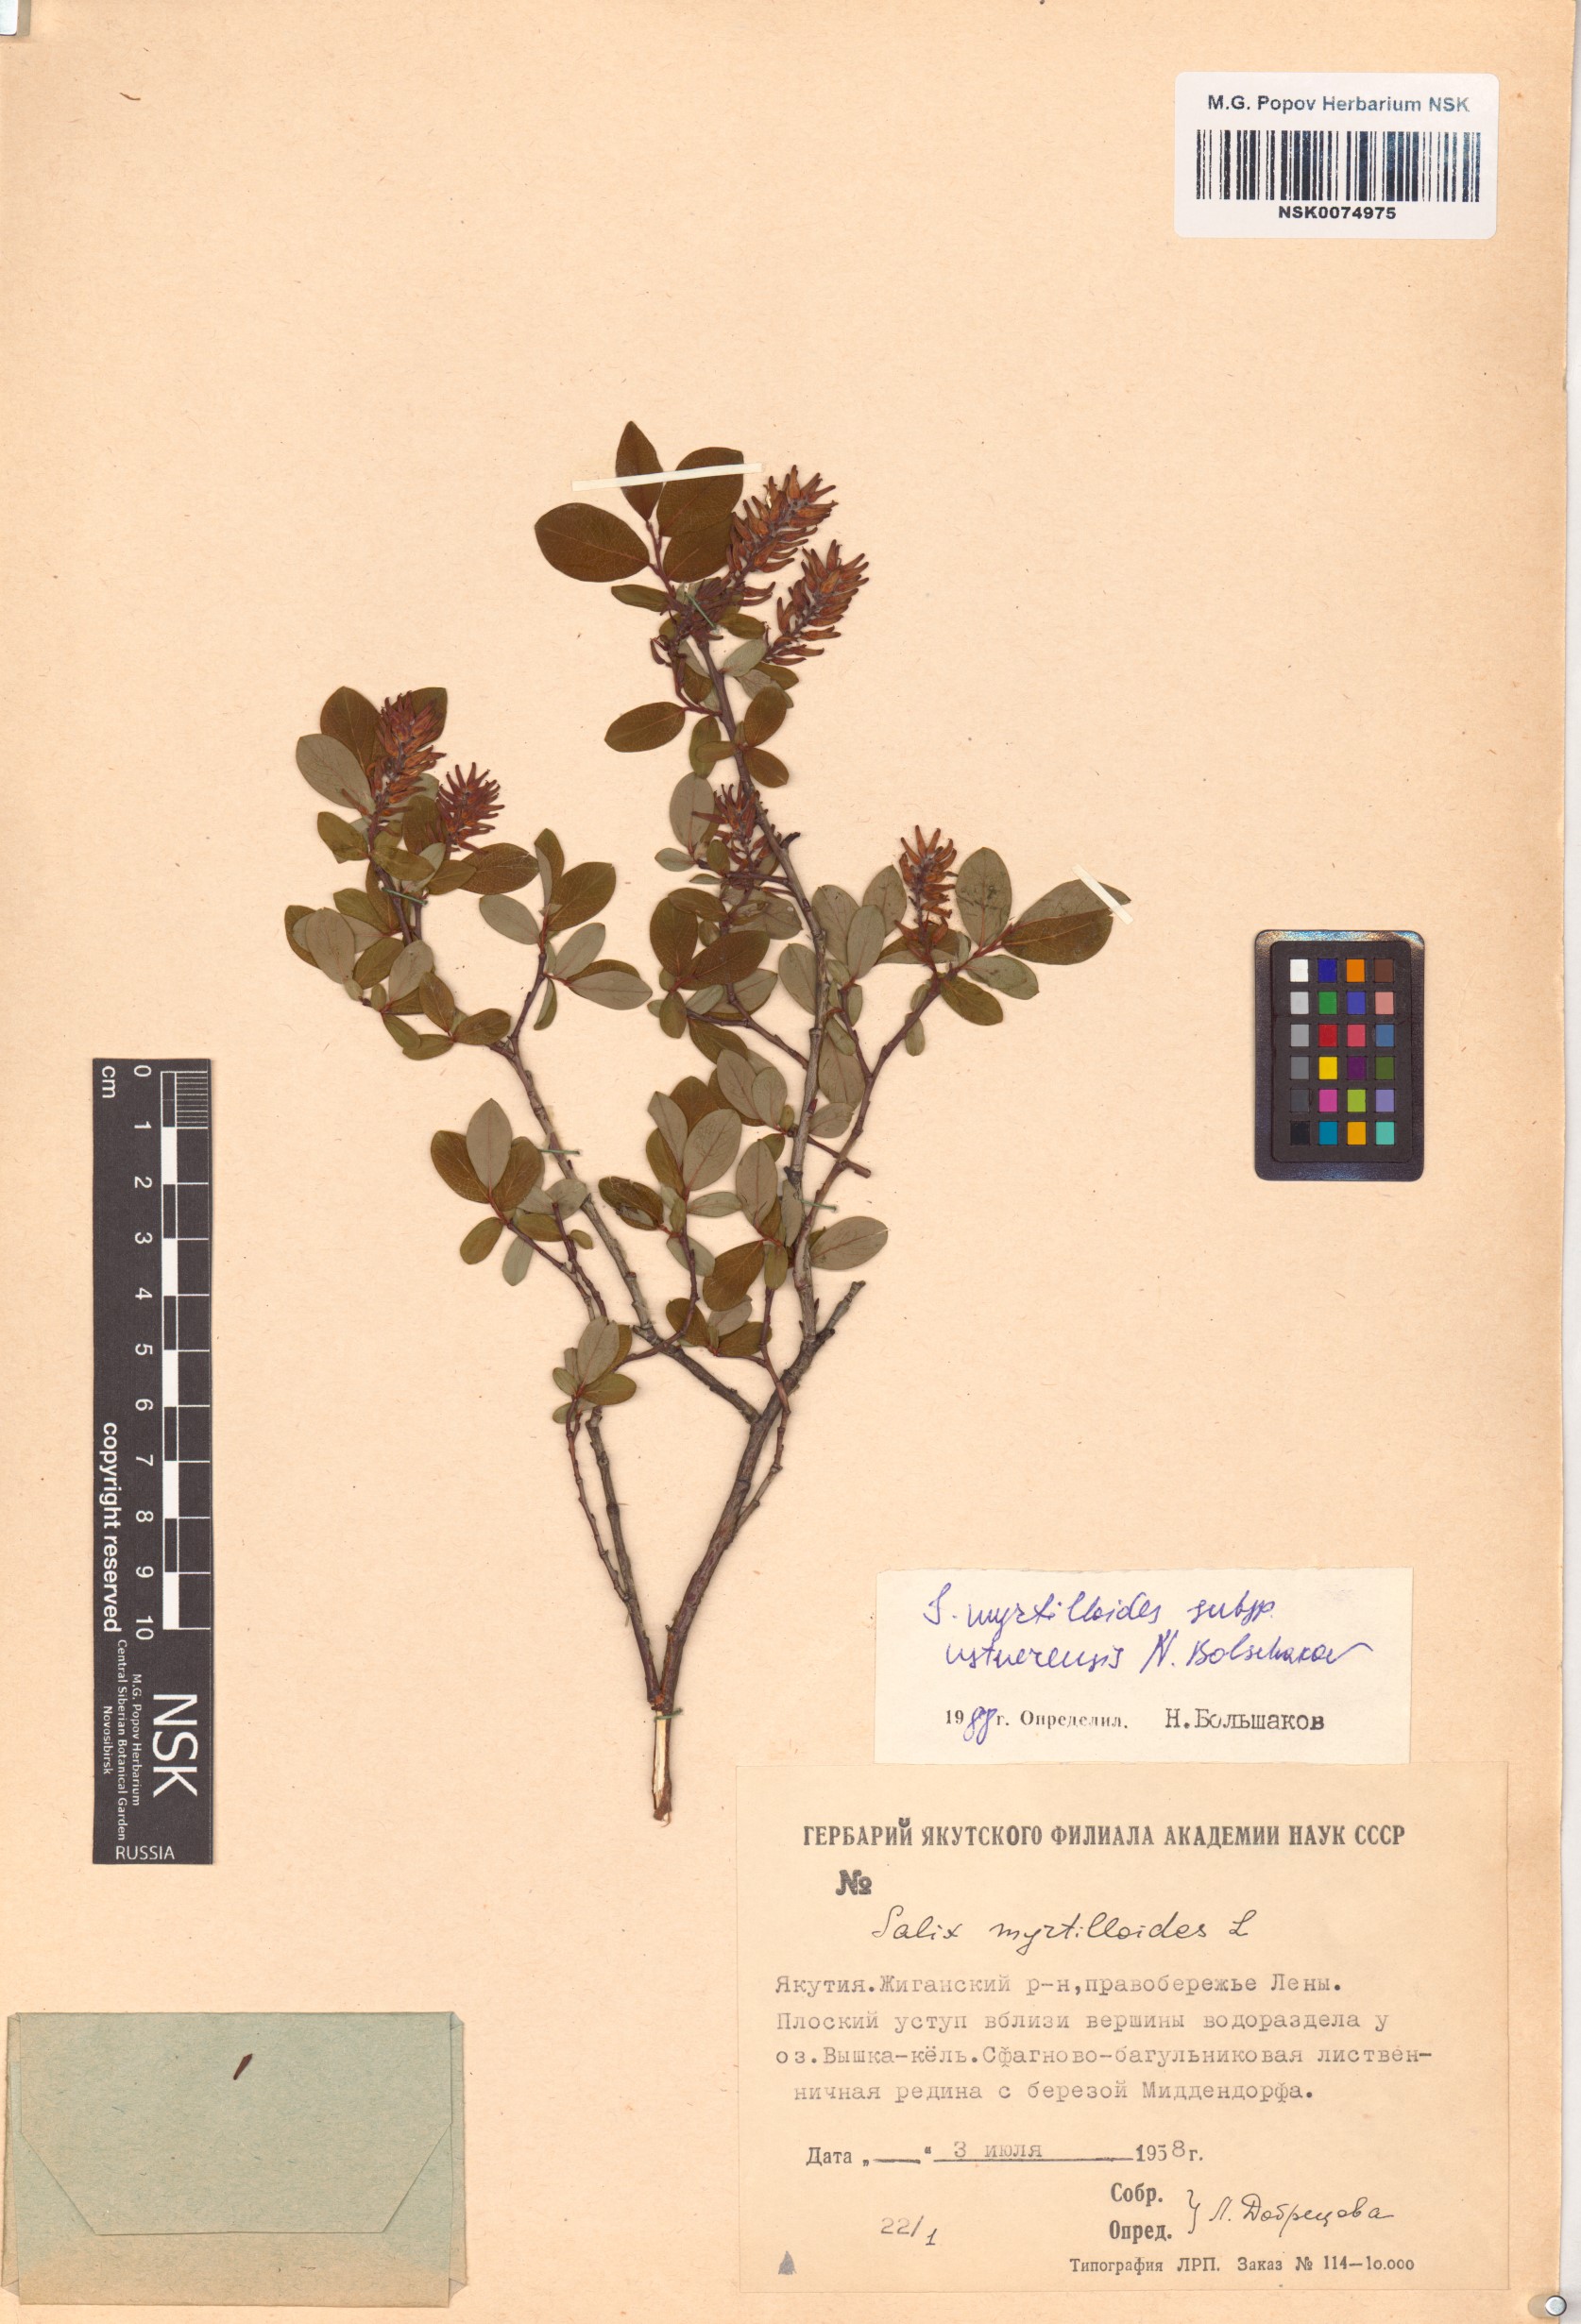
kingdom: Plantae
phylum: Tracheophyta
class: Magnoliopsida
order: Malpighiales
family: Salicaceae
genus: Salix
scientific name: Salix ustnerensis
